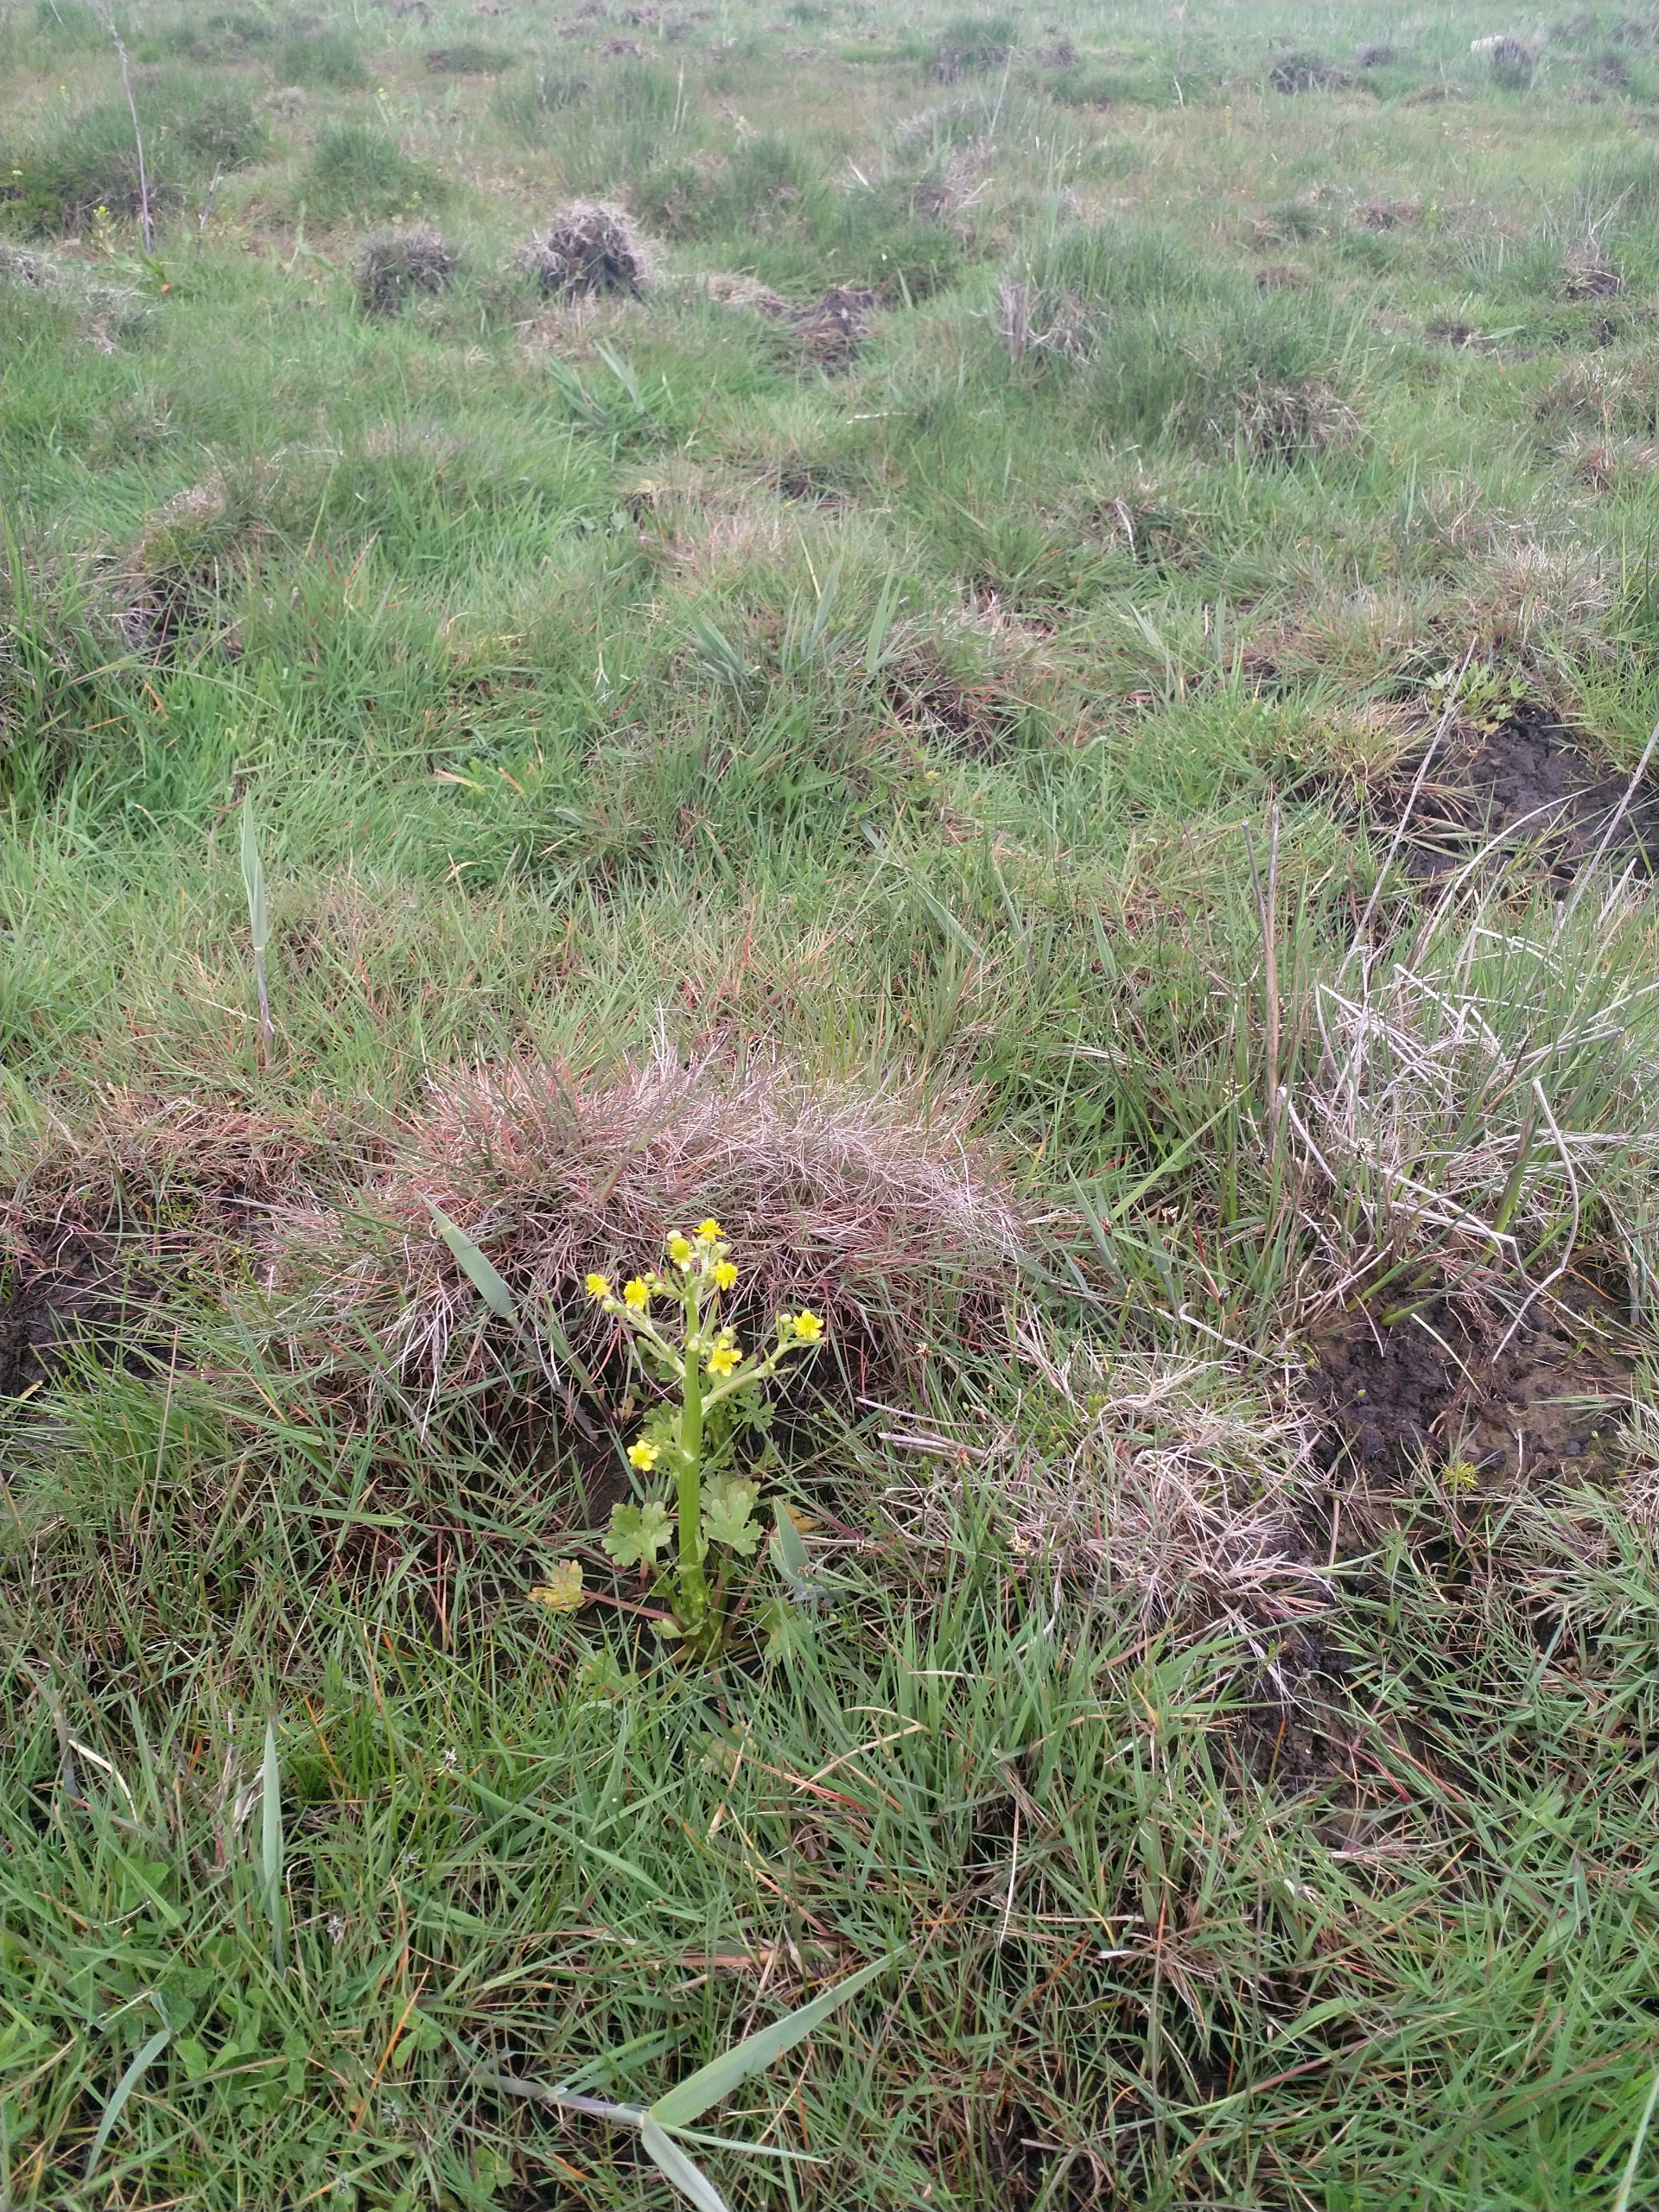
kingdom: Plantae
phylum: Tracheophyta
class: Magnoliopsida
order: Ranunculales
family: Ranunculaceae
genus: Ranunculus
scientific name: Ranunculus sceleratus
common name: Tigger-ranunkel
